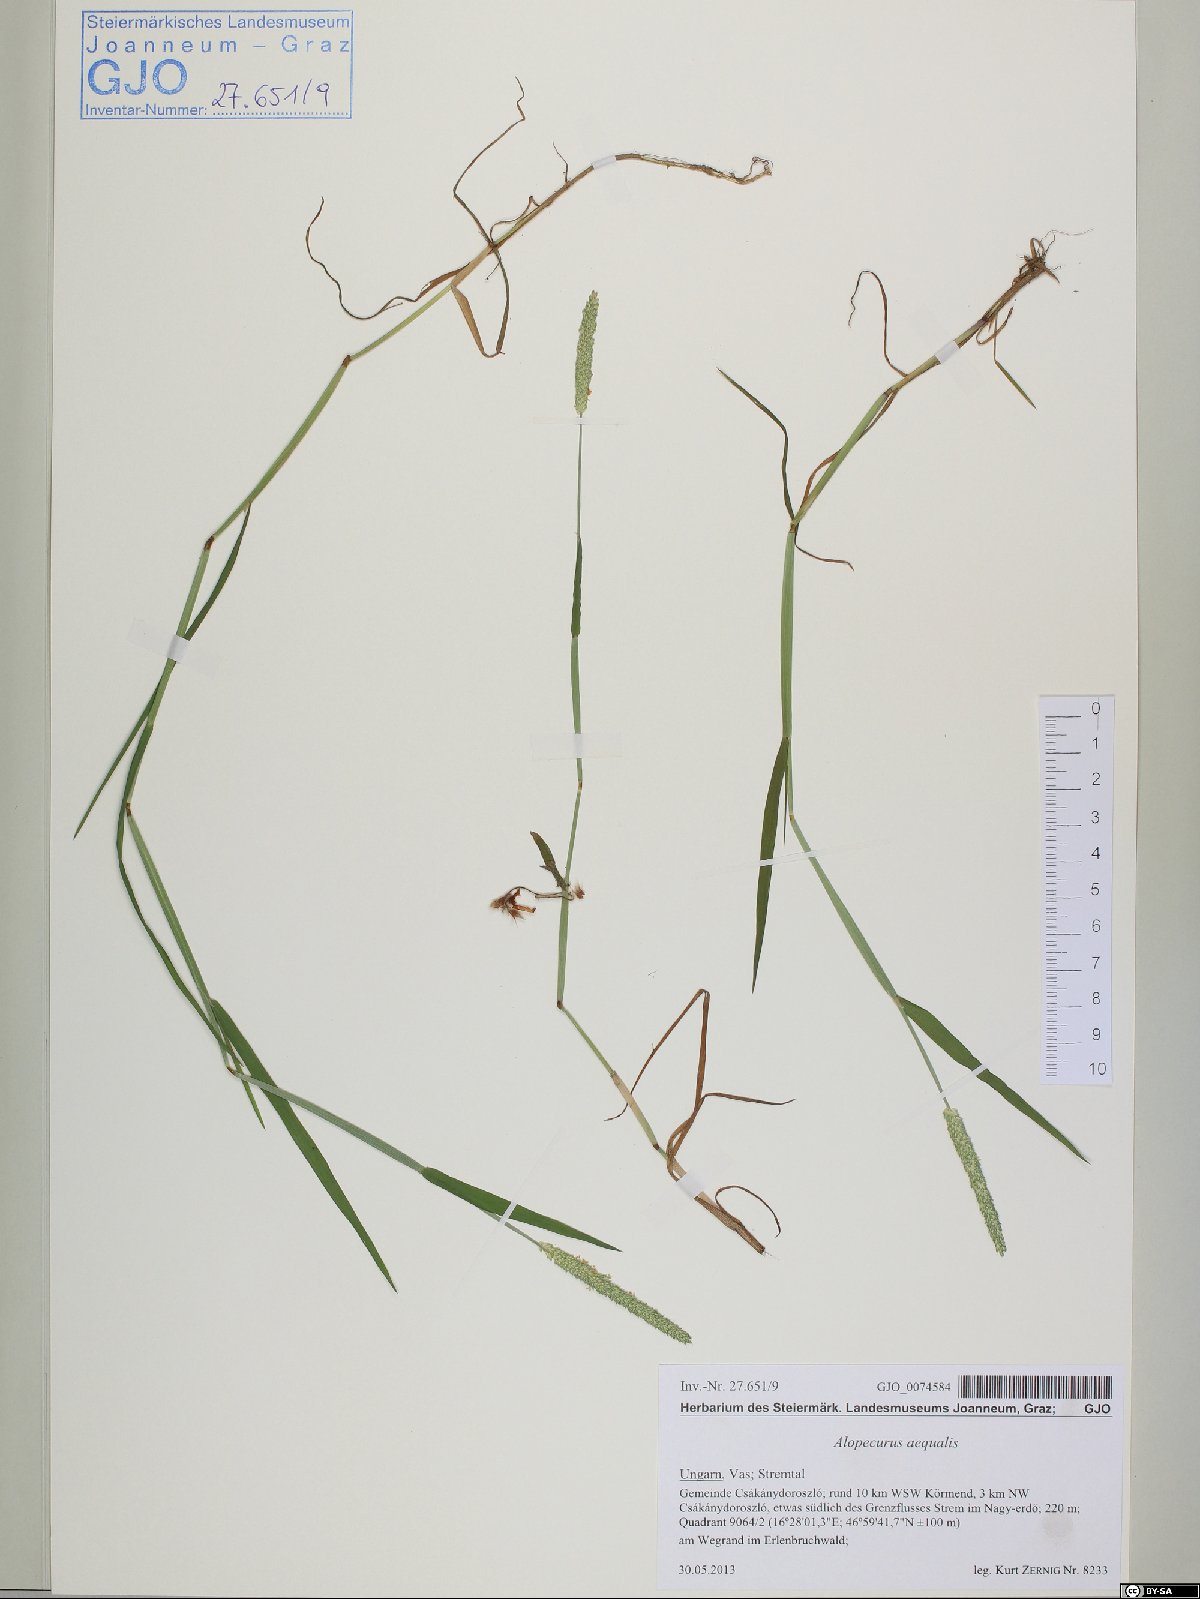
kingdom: Plantae
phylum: Tracheophyta
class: Liliopsida
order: Poales
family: Poaceae
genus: Alopecurus
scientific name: Alopecurus aequalis
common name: Orange foxtail
